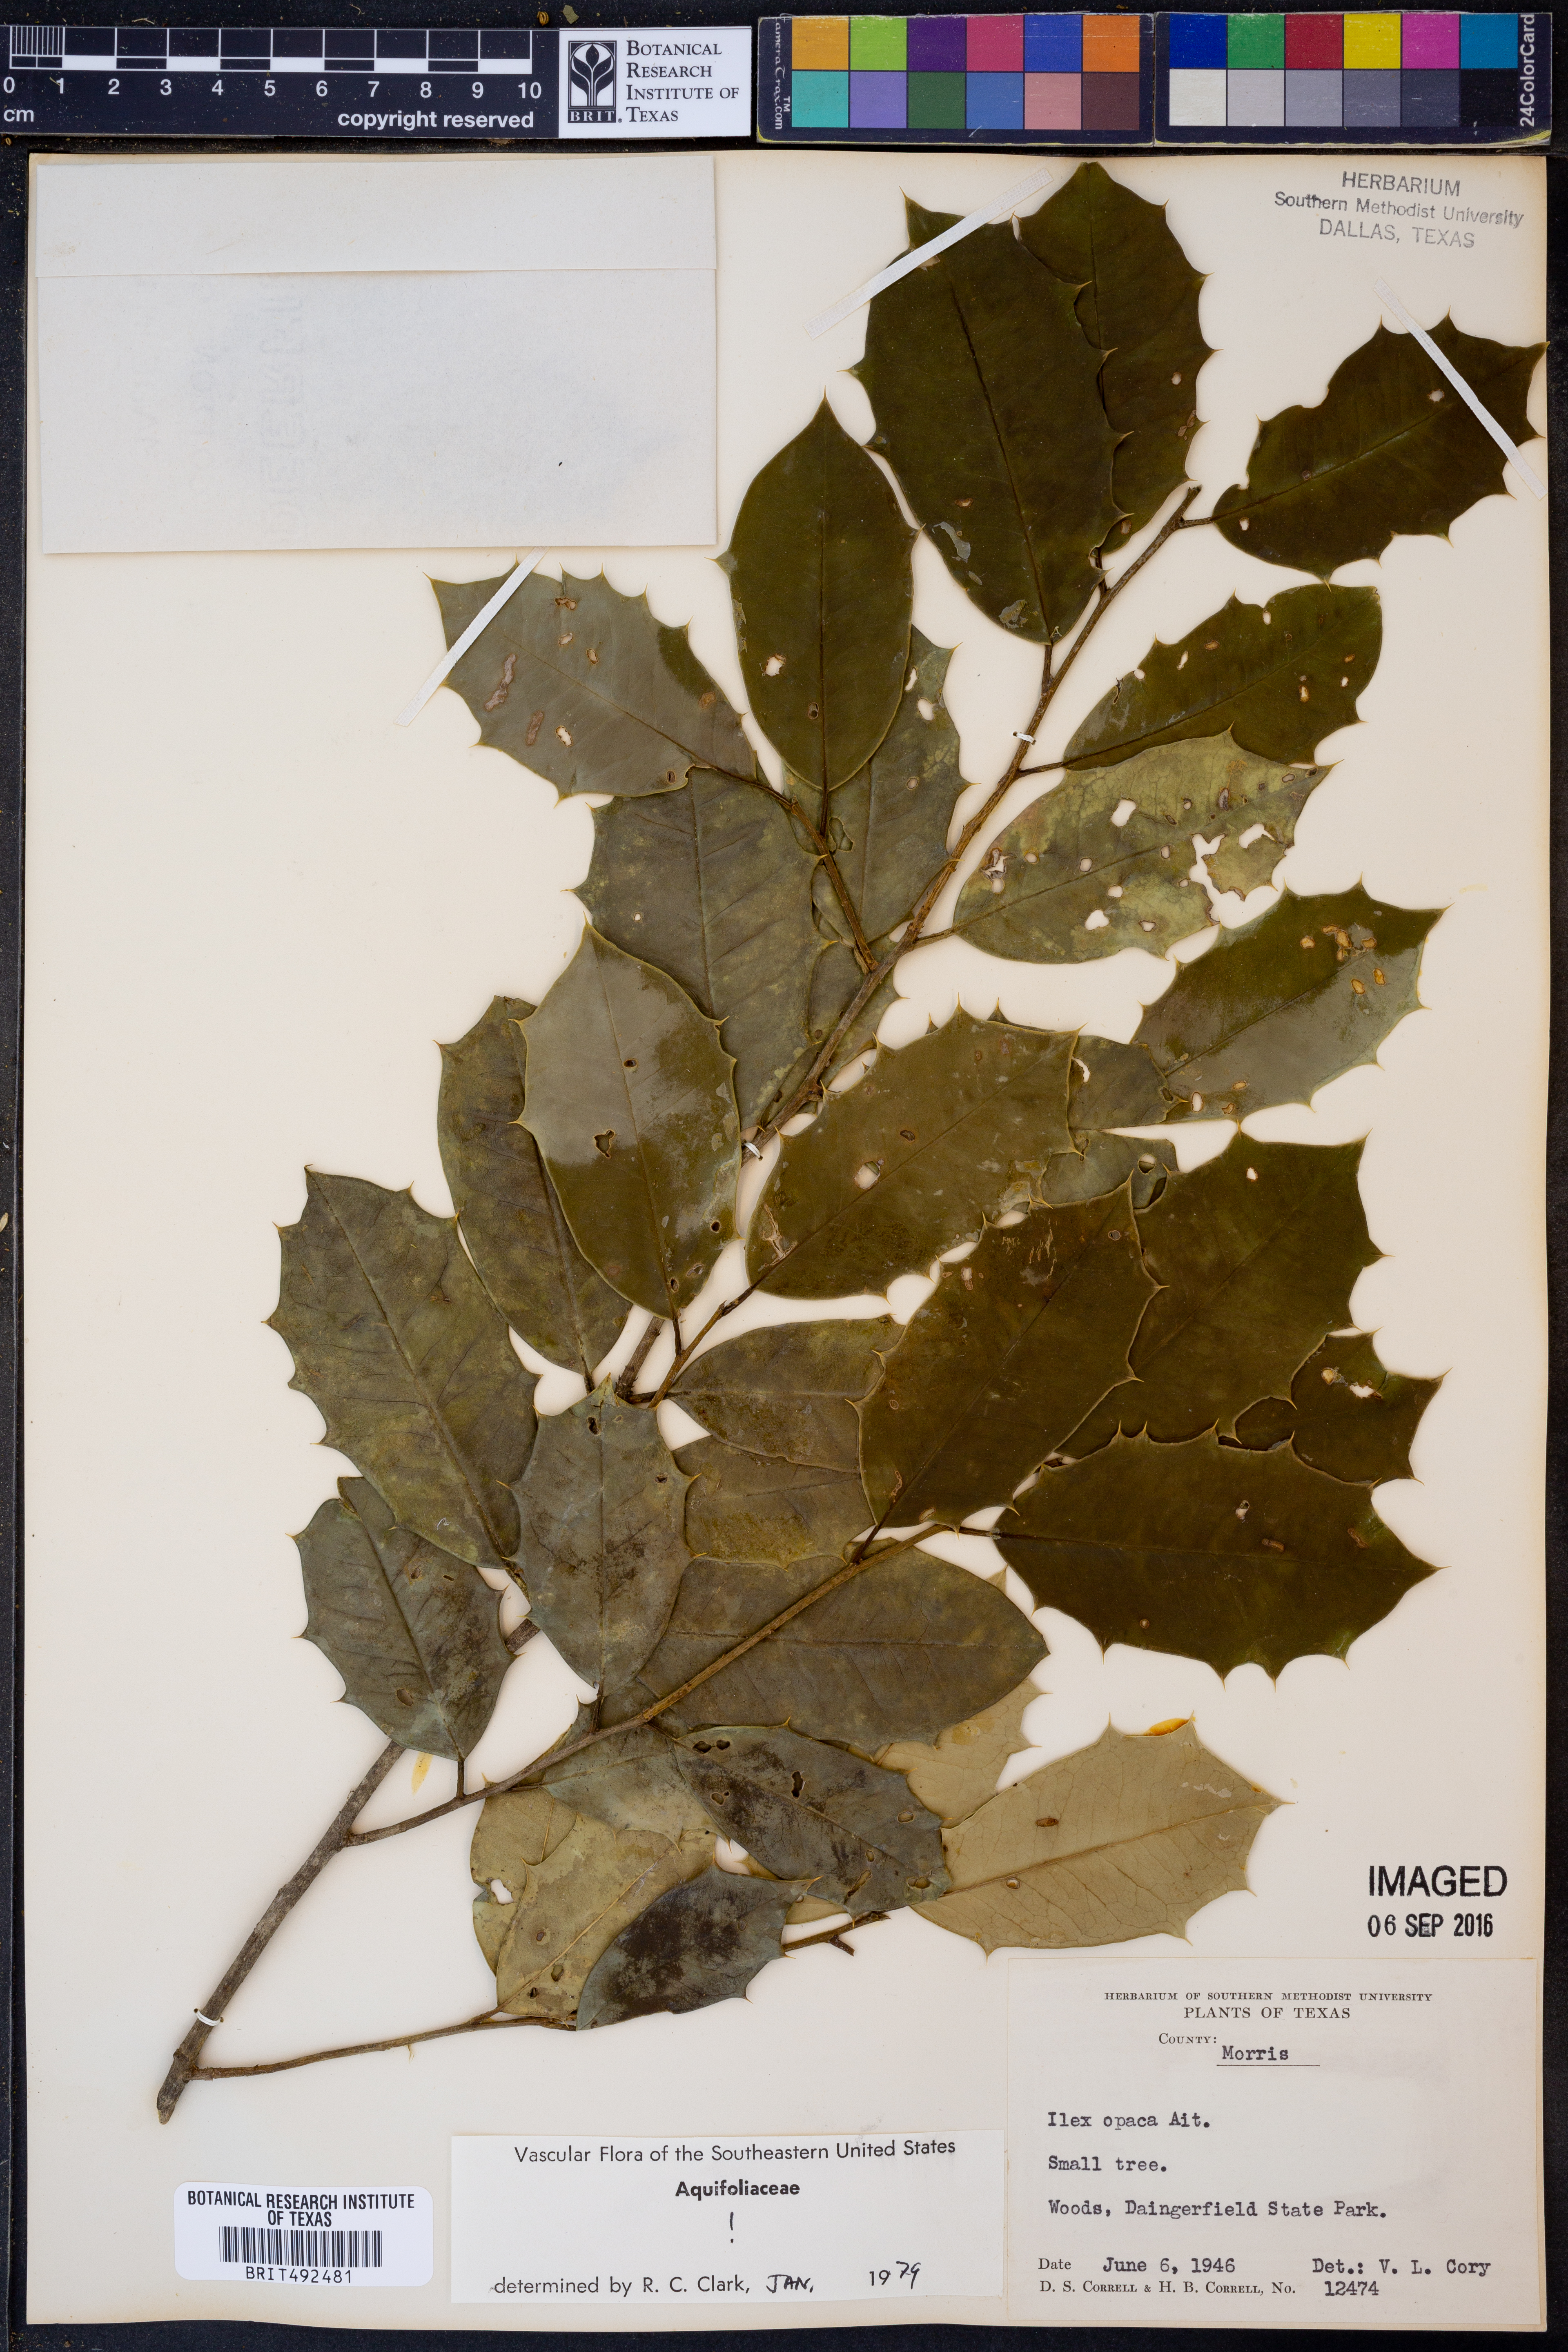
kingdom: Plantae
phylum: Tracheophyta
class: Magnoliopsida
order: Aquifoliales
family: Aquifoliaceae
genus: Ilex
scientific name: Ilex opaca
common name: American holly
